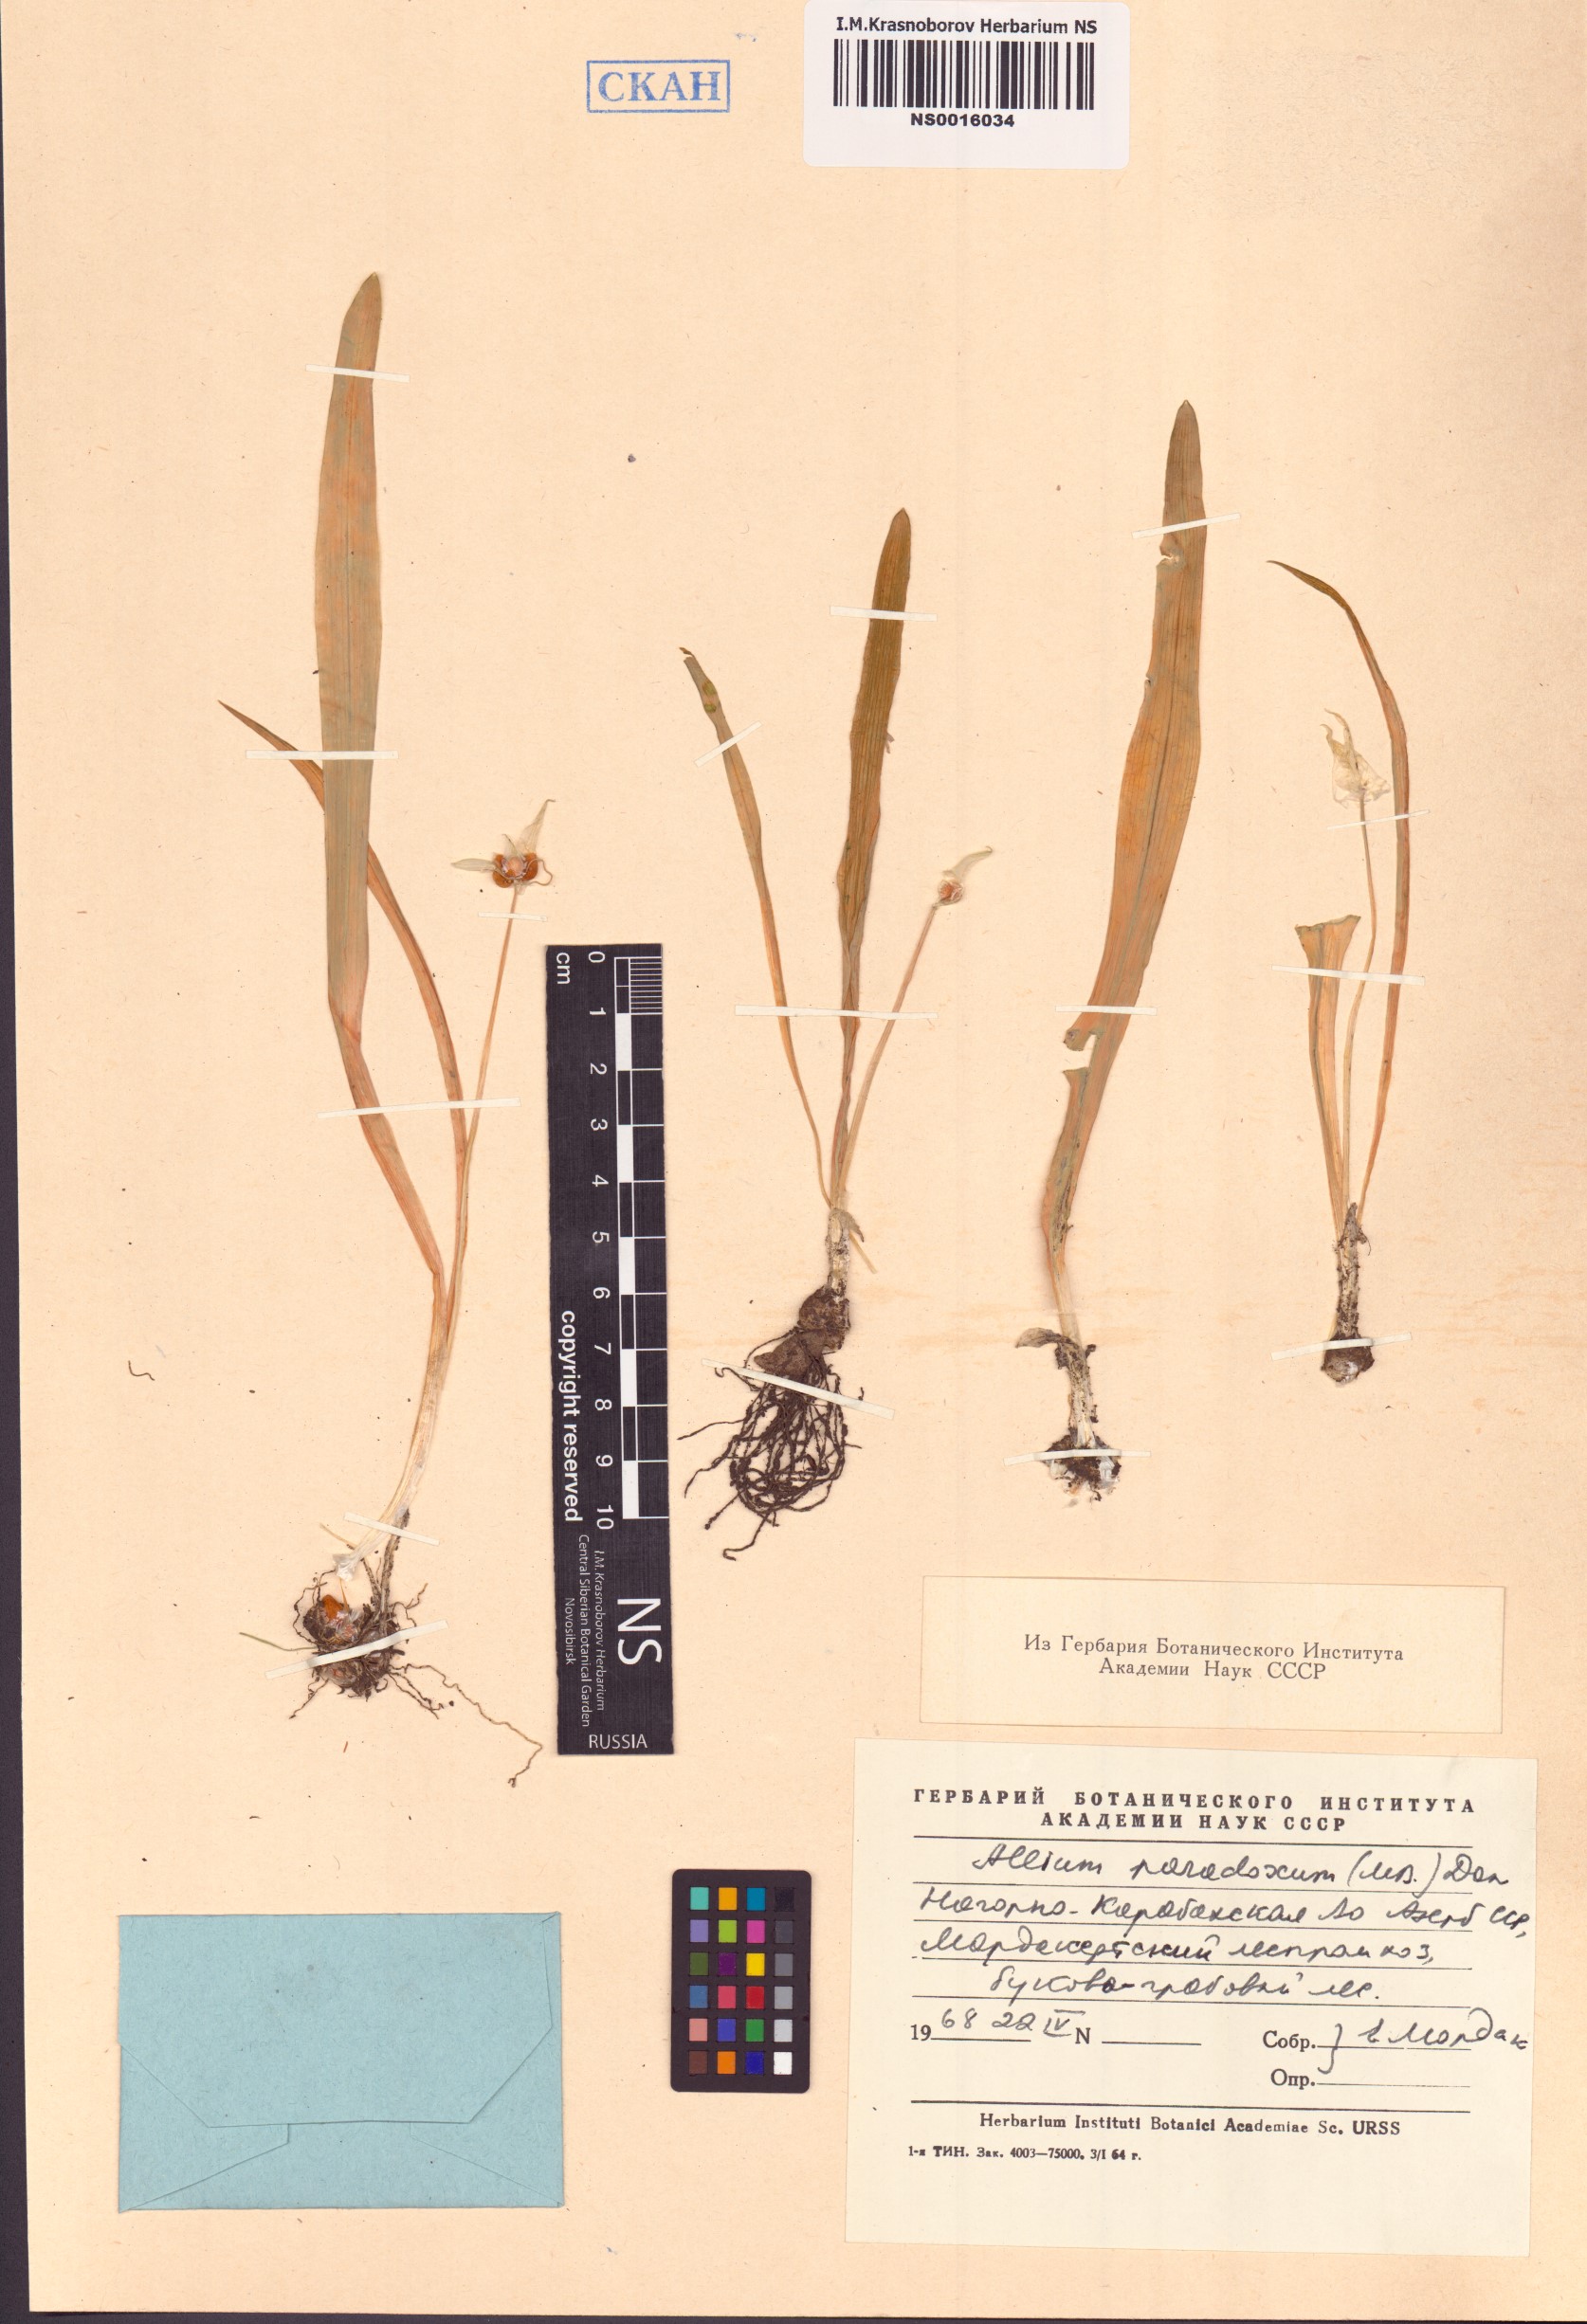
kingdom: Plantae
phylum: Tracheophyta
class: Liliopsida
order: Asparagales
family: Amaryllidaceae
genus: Allium
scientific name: Allium paradoxum
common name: Few-flowered garlic
